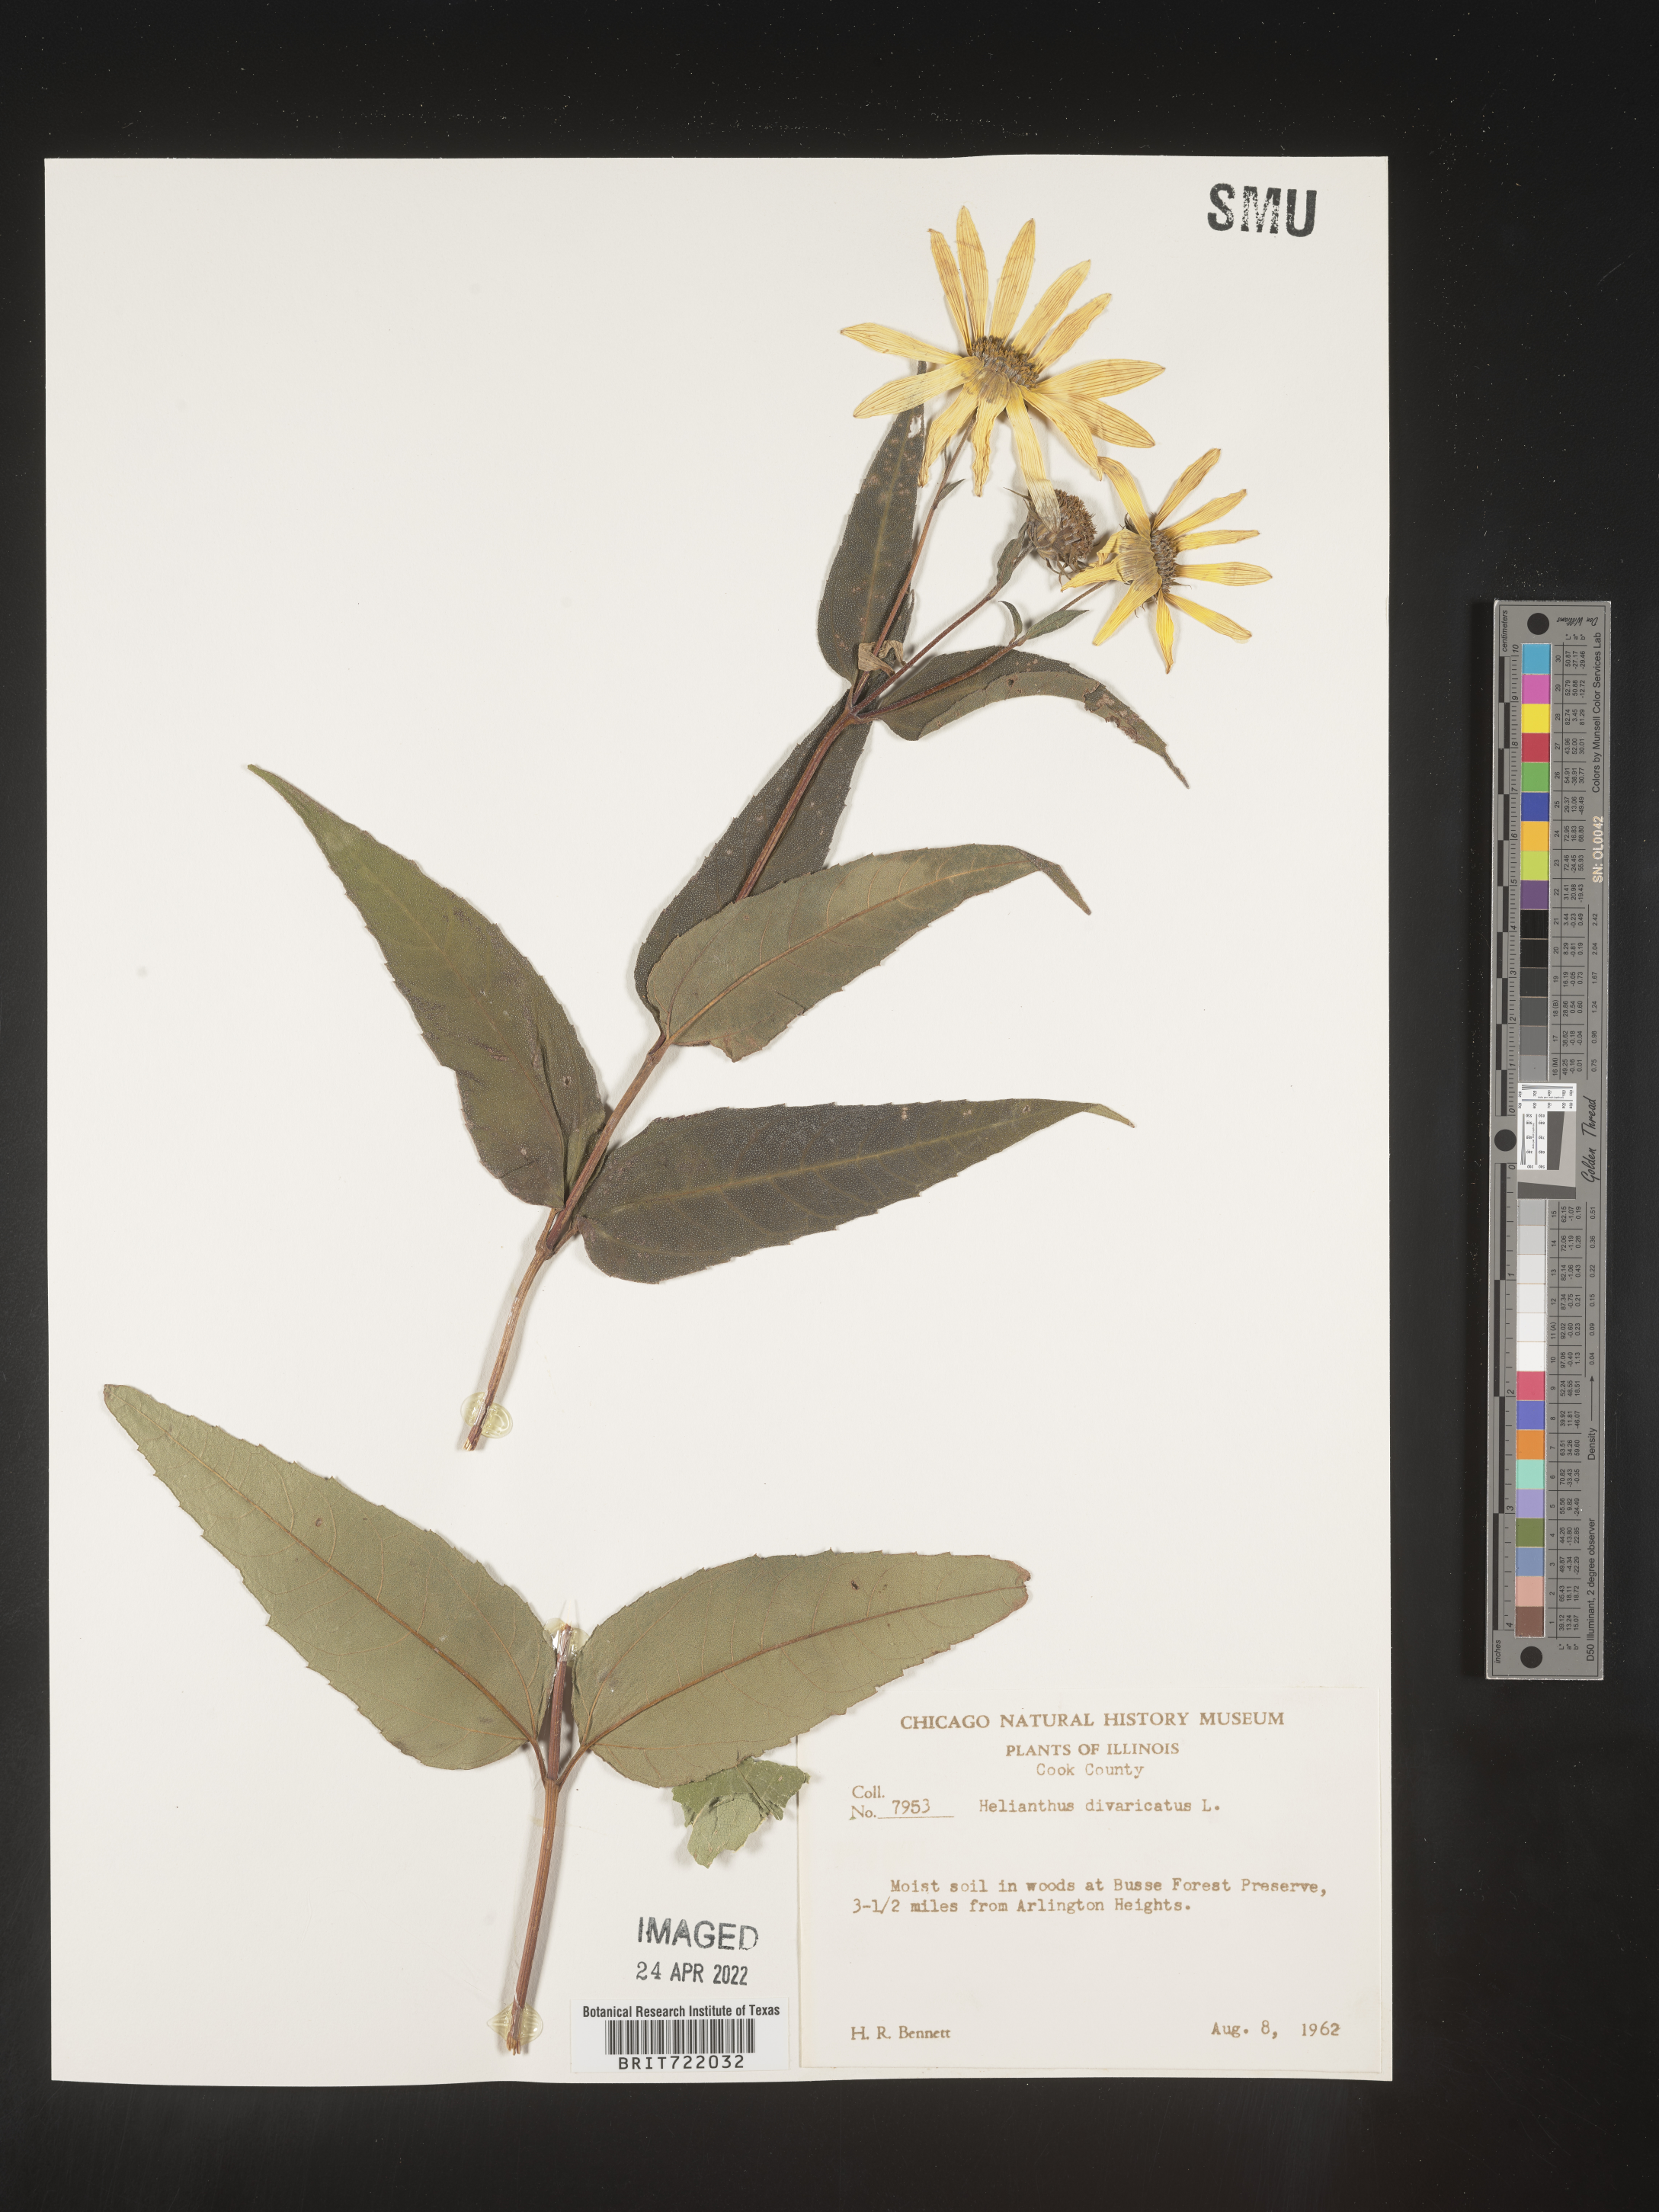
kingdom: Plantae
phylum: Tracheophyta
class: Magnoliopsida
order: Asterales
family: Asteraceae
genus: Helianthus
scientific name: Helianthus divaricatus
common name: Divergent sunflower
